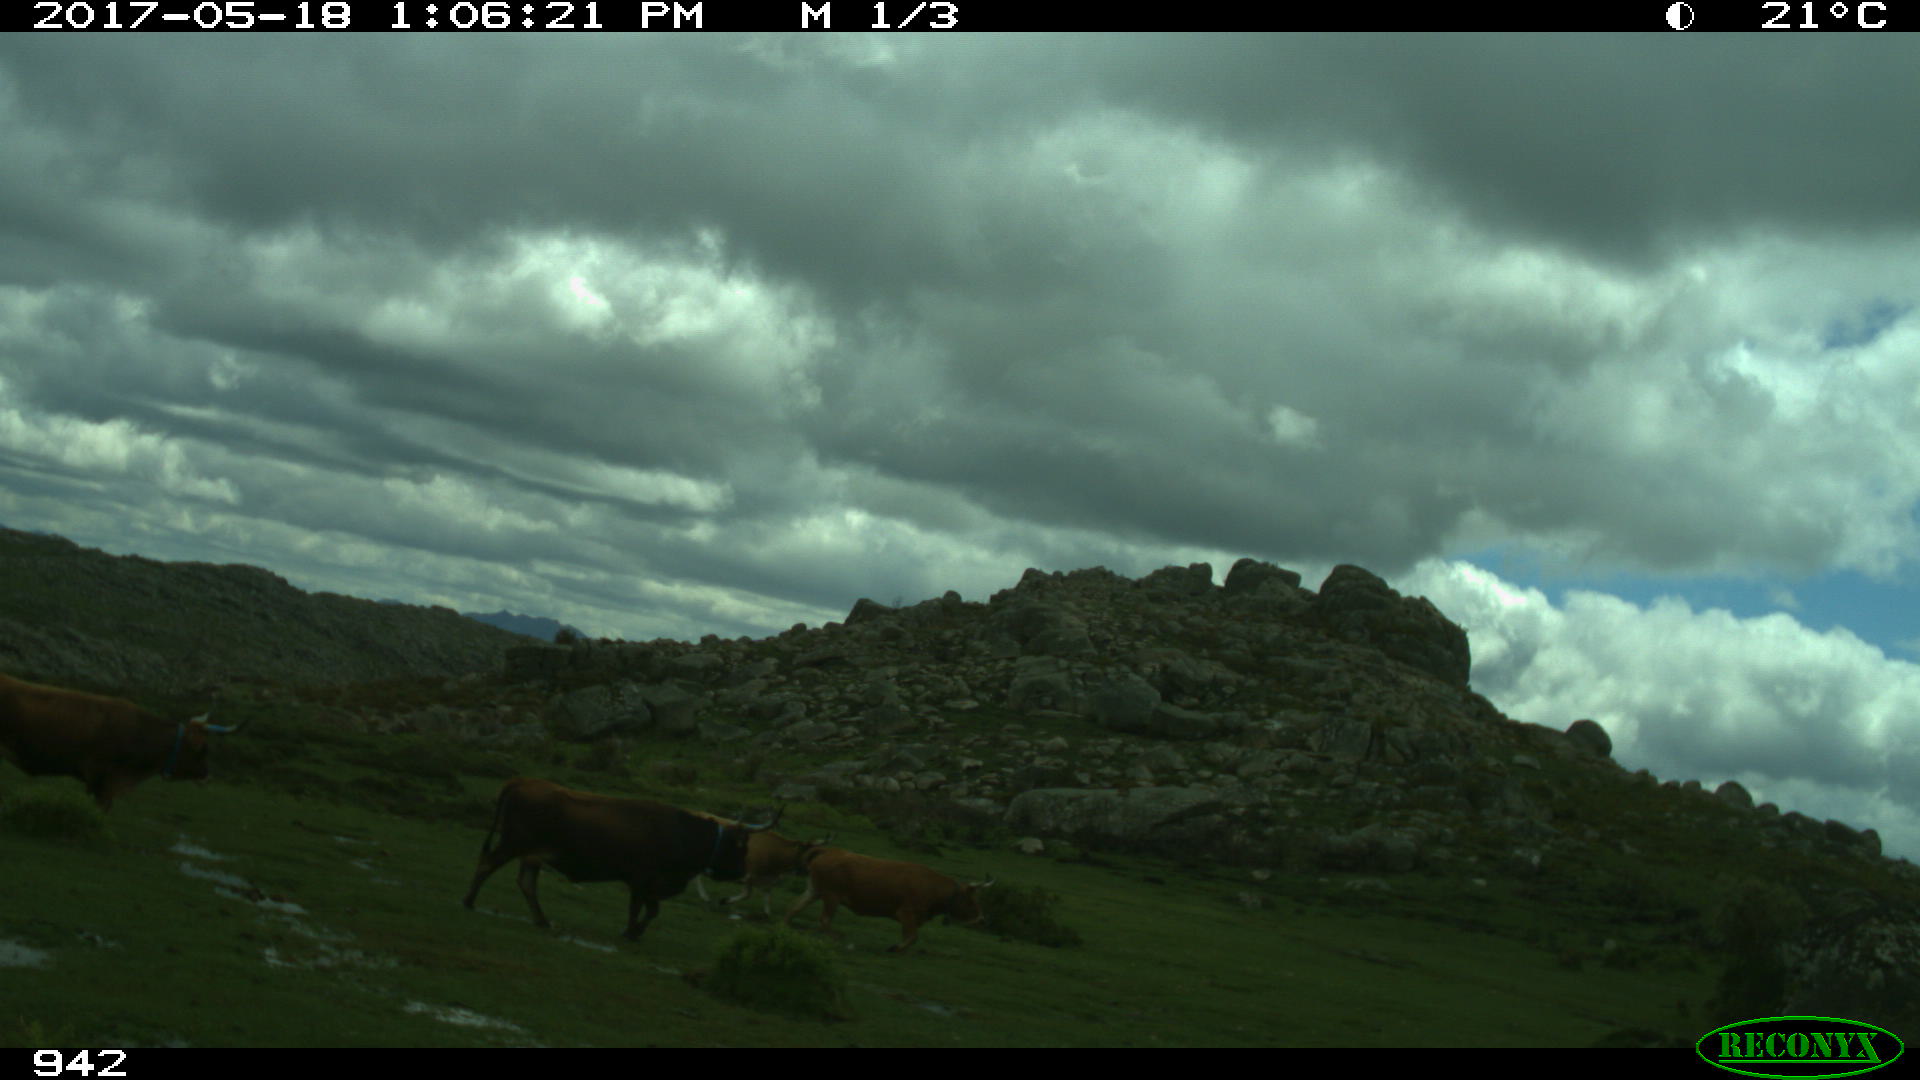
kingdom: Animalia
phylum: Chordata
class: Mammalia
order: Artiodactyla
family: Bovidae
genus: Bos
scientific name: Bos taurus
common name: Domesticated cattle
